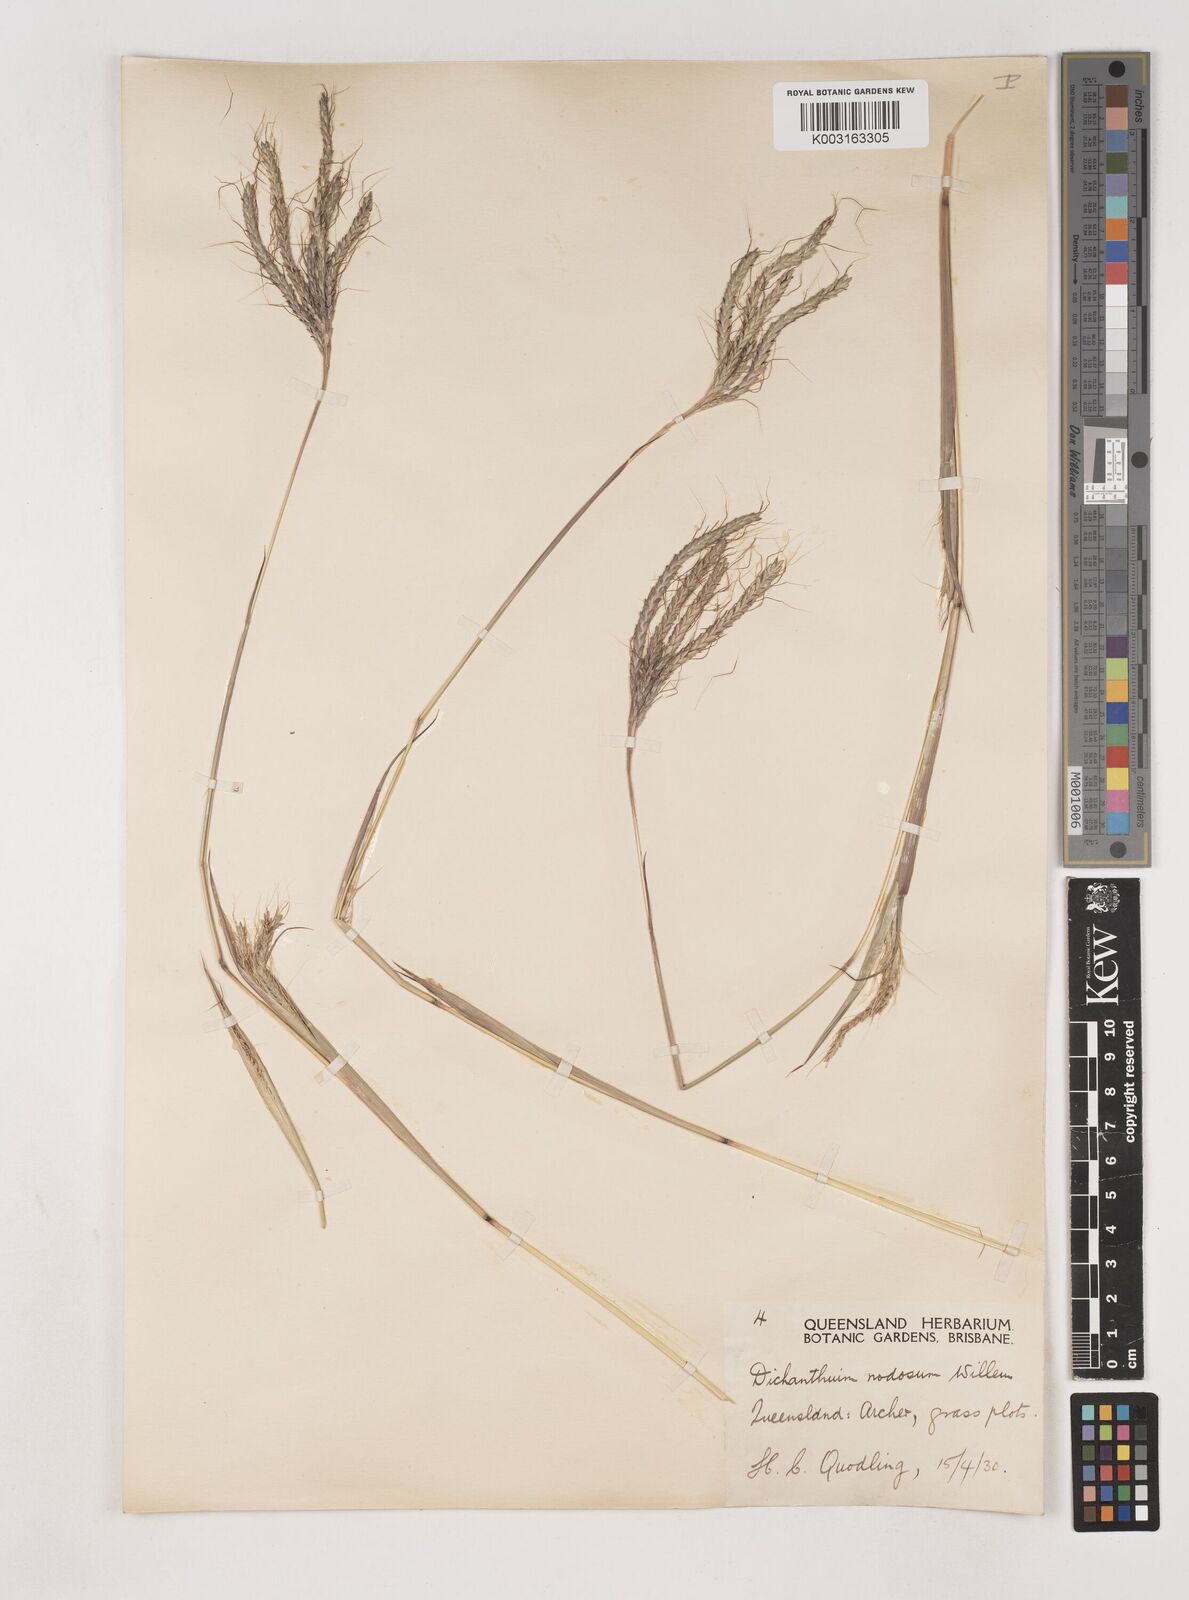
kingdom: Plantae
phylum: Tracheophyta
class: Liliopsida
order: Poales
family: Poaceae
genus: Dichanthium
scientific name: Dichanthium aristatum
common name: Angleton bluestem
